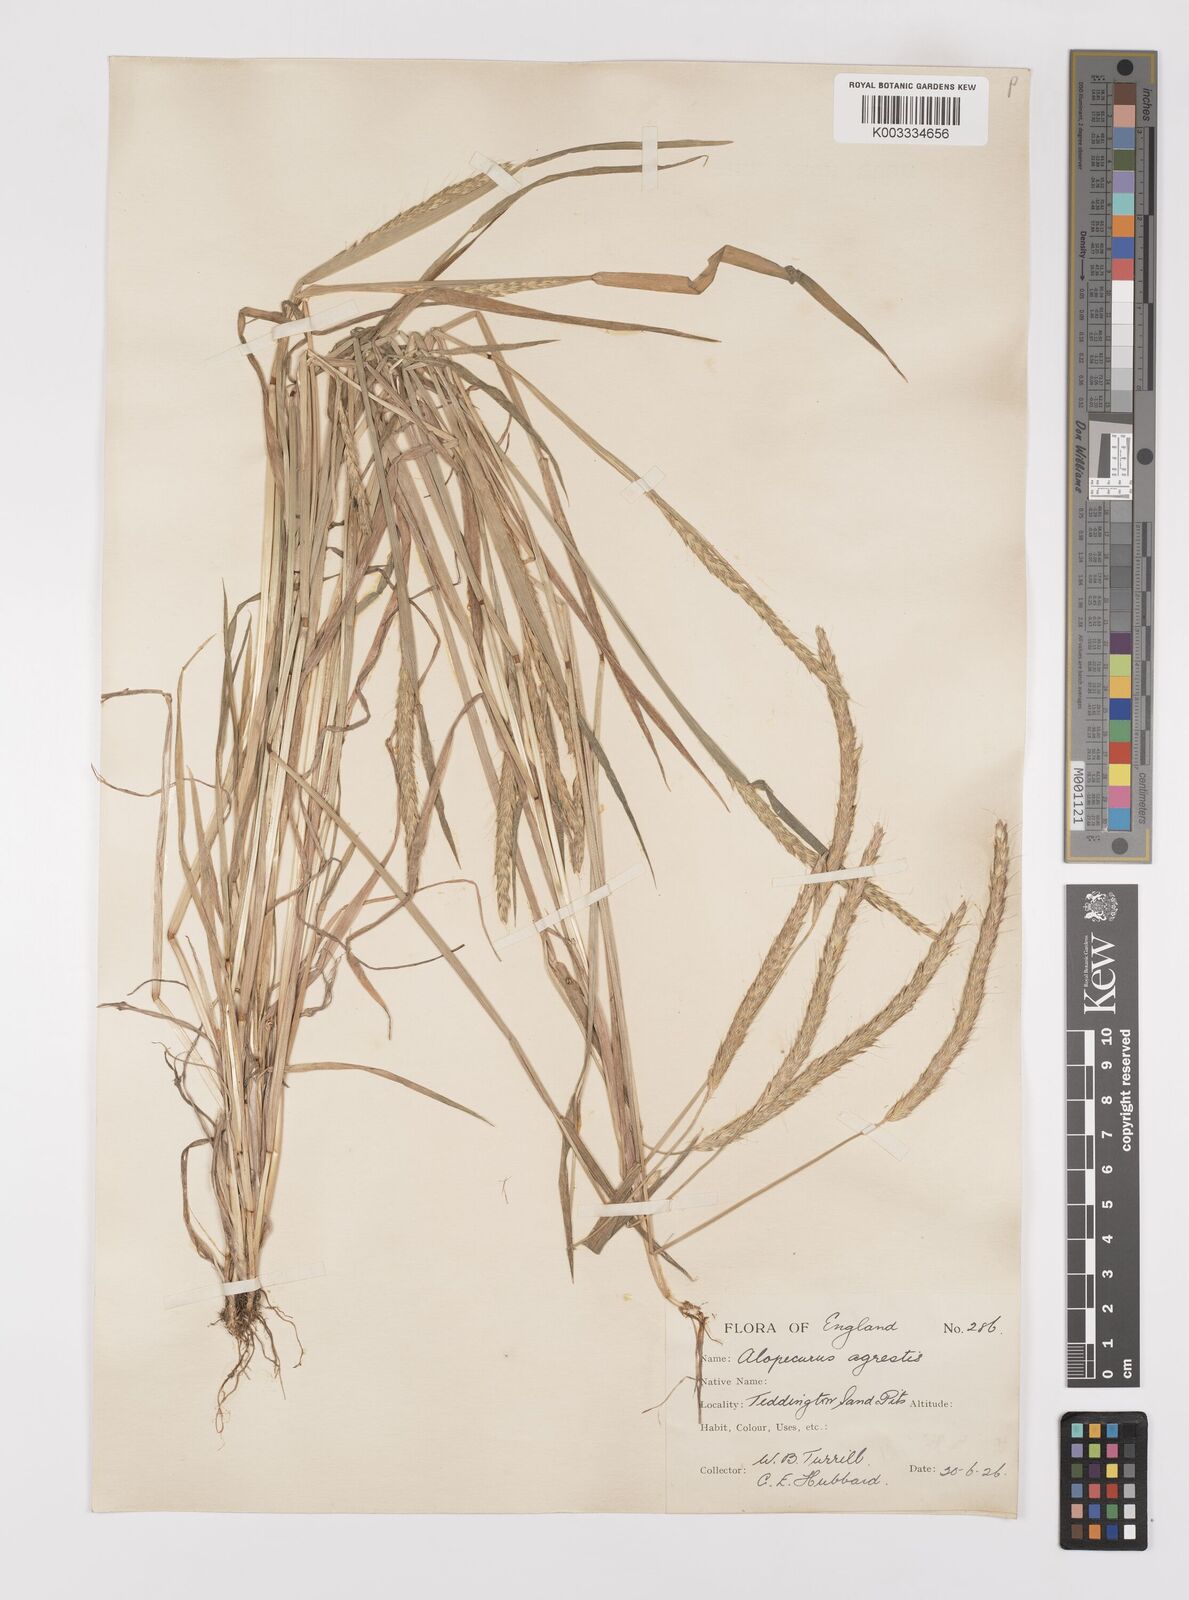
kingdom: Plantae
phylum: Tracheophyta
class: Liliopsida
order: Poales
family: Poaceae
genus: Alopecurus
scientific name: Alopecurus myosuroides
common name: Black-grass
